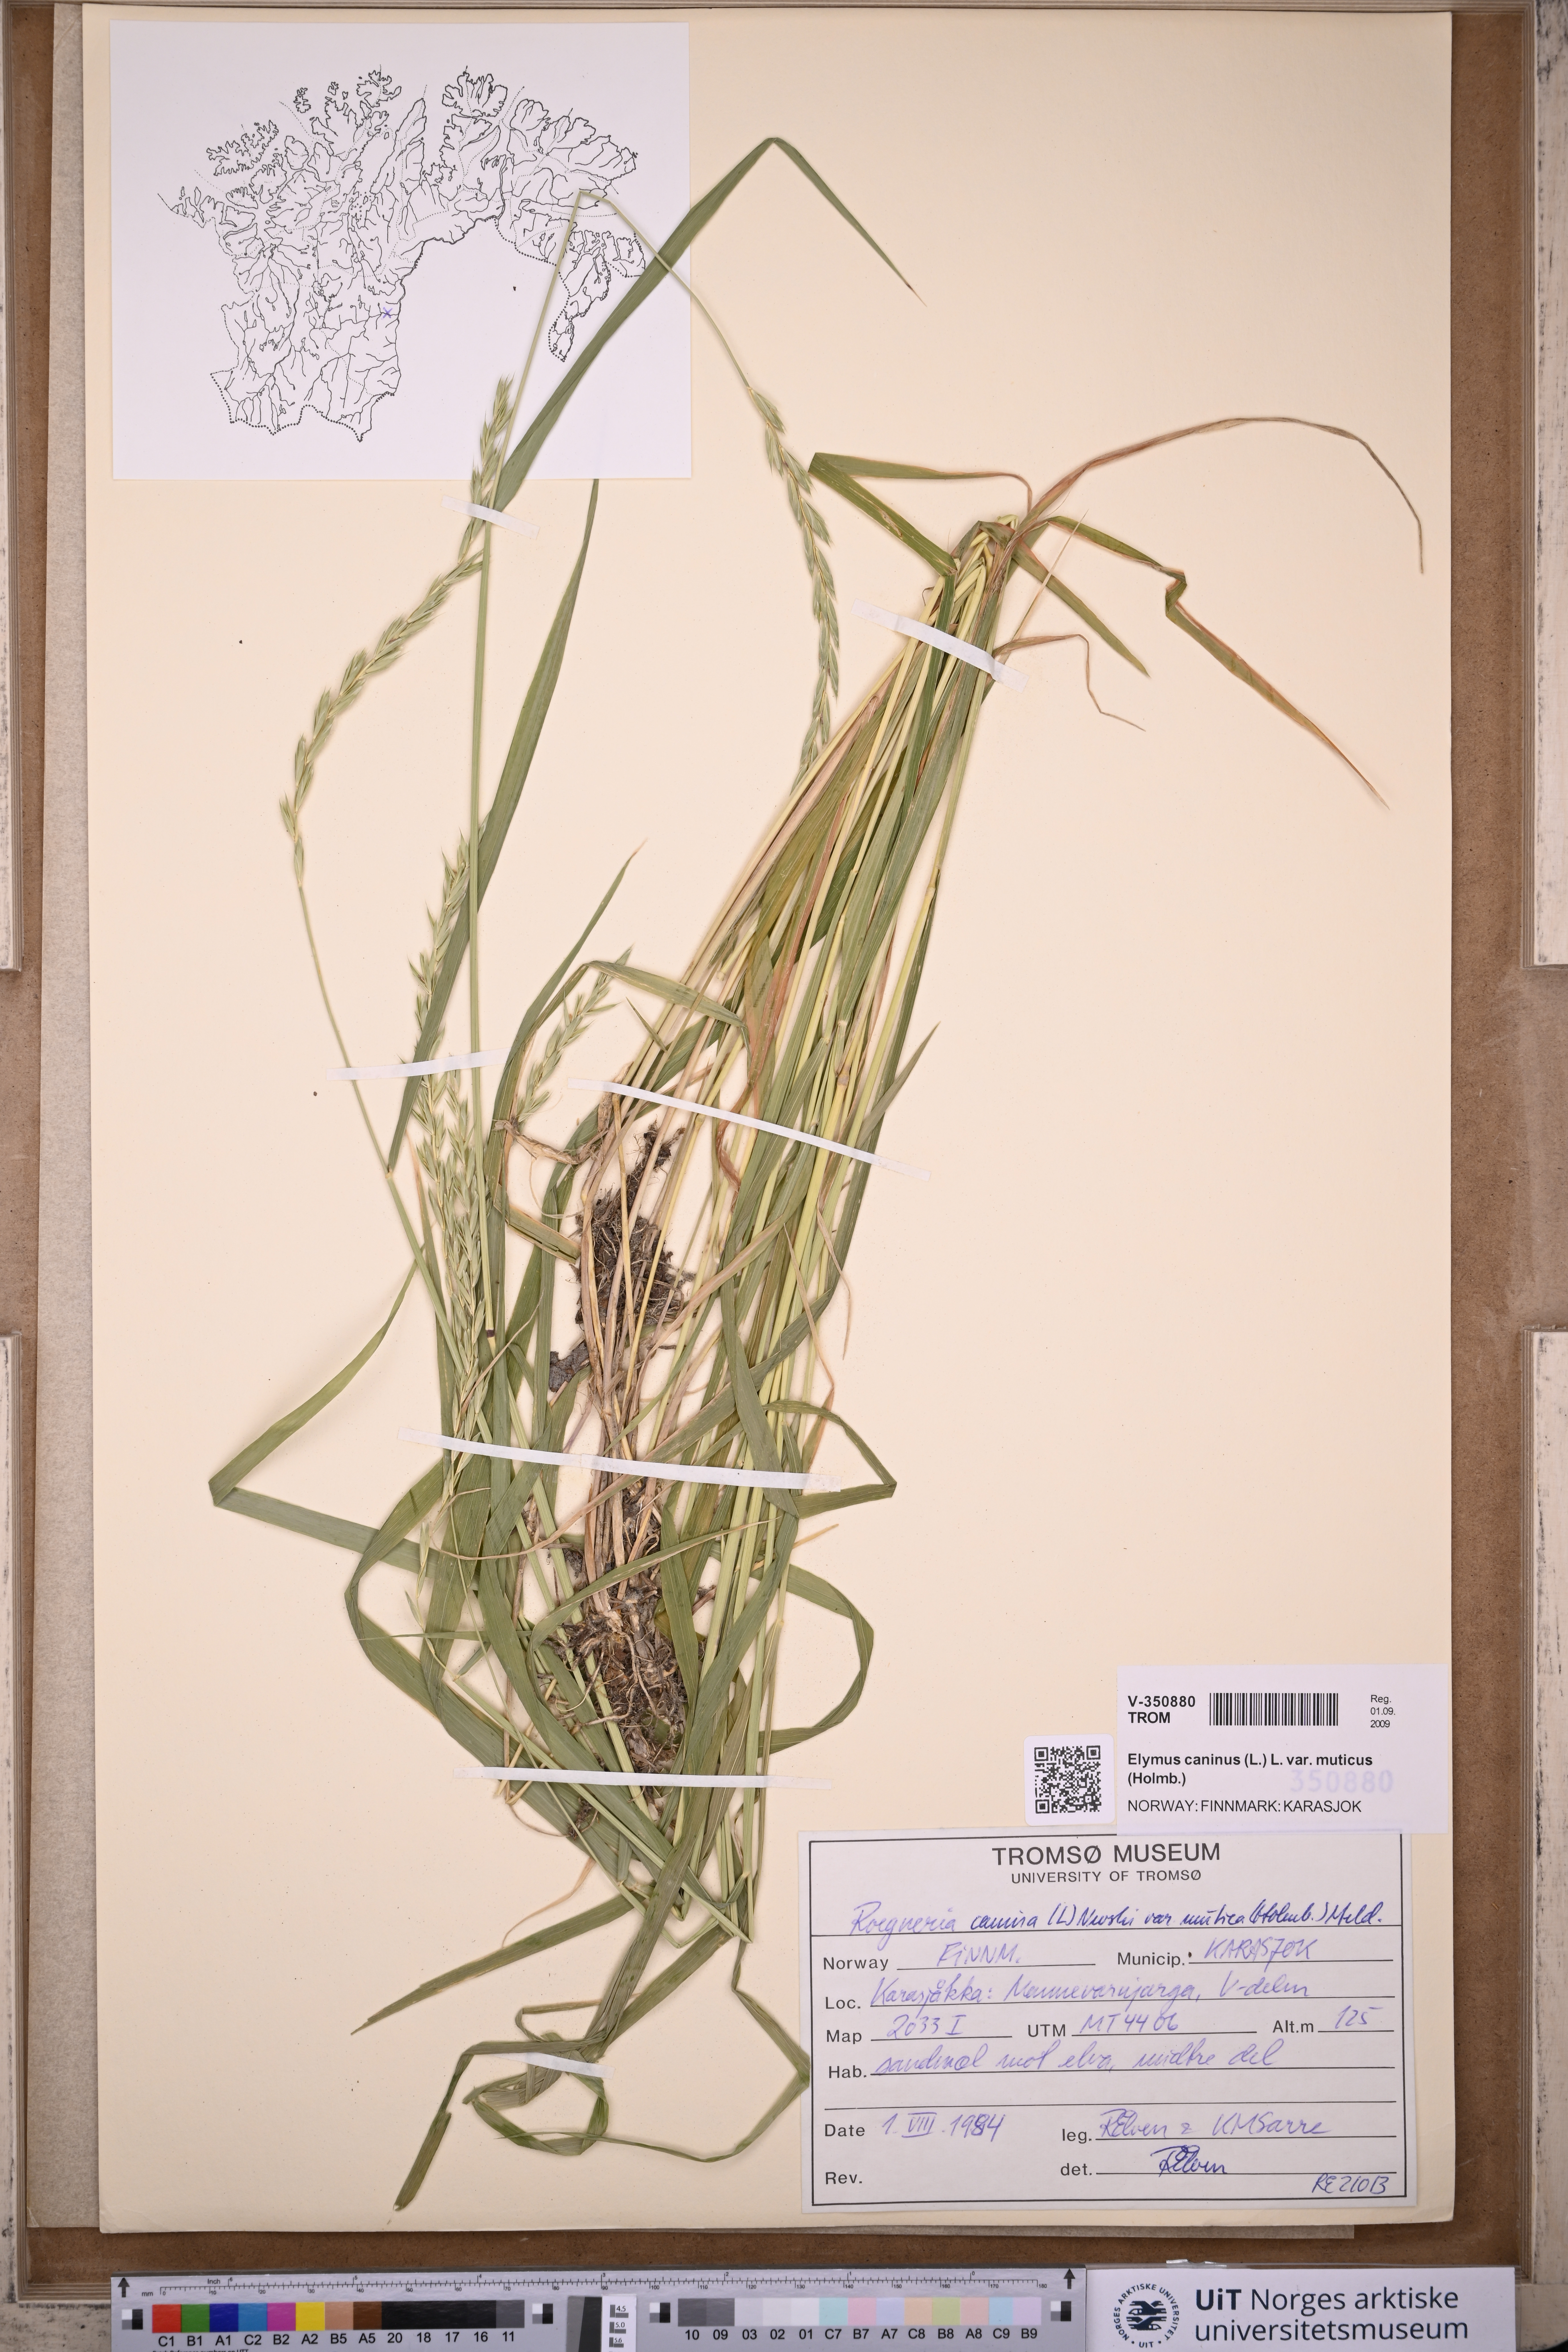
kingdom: Plantae
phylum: Tracheophyta
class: Liliopsida
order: Poales
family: Poaceae
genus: Elymus
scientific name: Elymus caninus
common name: Bearded couch
